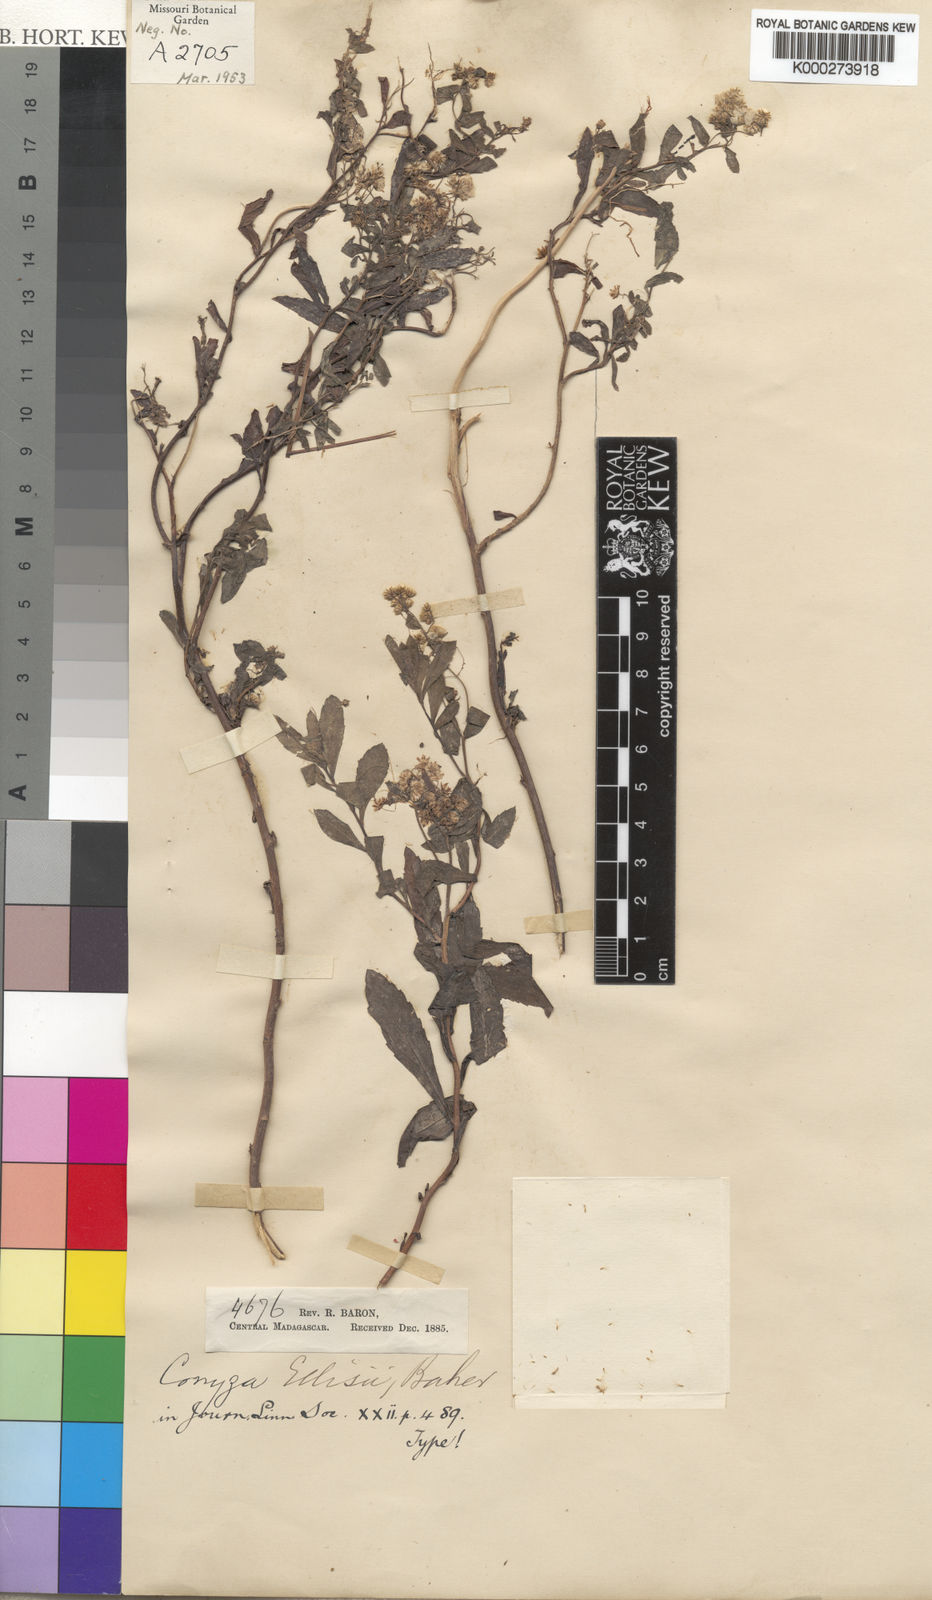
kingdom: Plantae
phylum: Tracheophyta
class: Magnoliopsida
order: Asterales
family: Asteraceae
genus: Conyza
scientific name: Conyza incana
